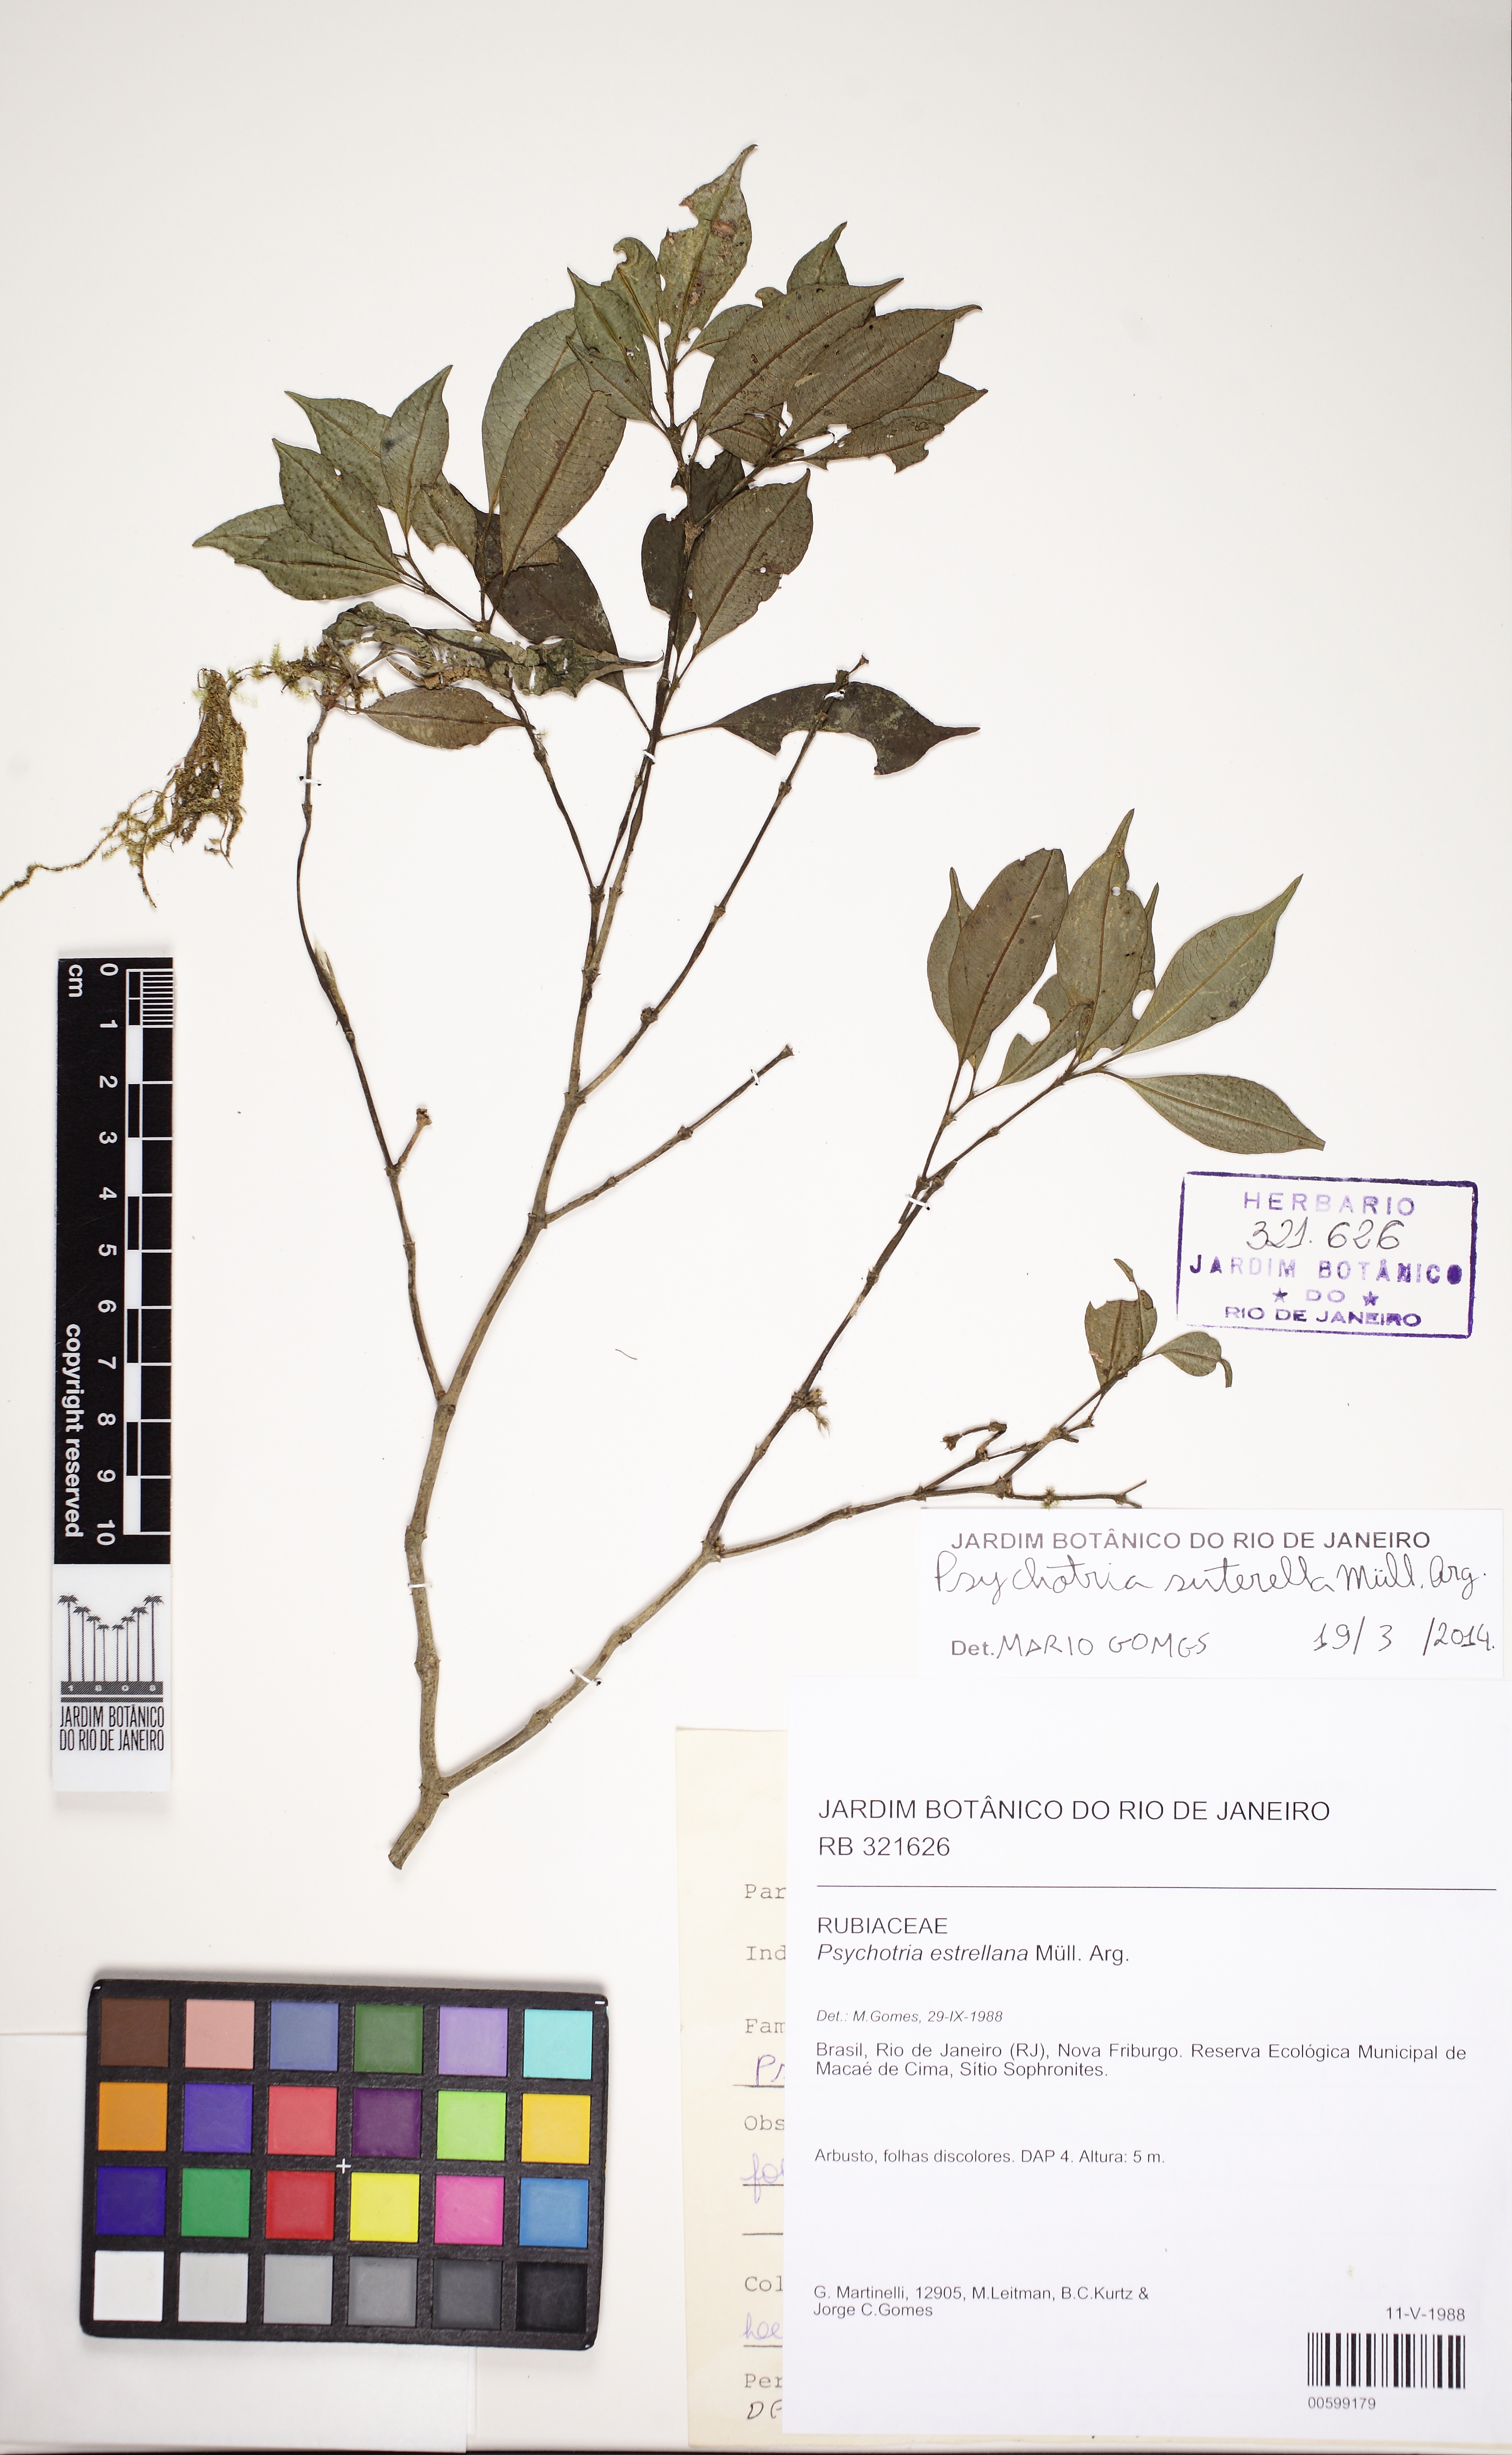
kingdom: Plantae
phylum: Tracheophyta
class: Magnoliopsida
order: Gentianales
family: Rubiaceae
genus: Psychotria
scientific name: Psychotria suterella
